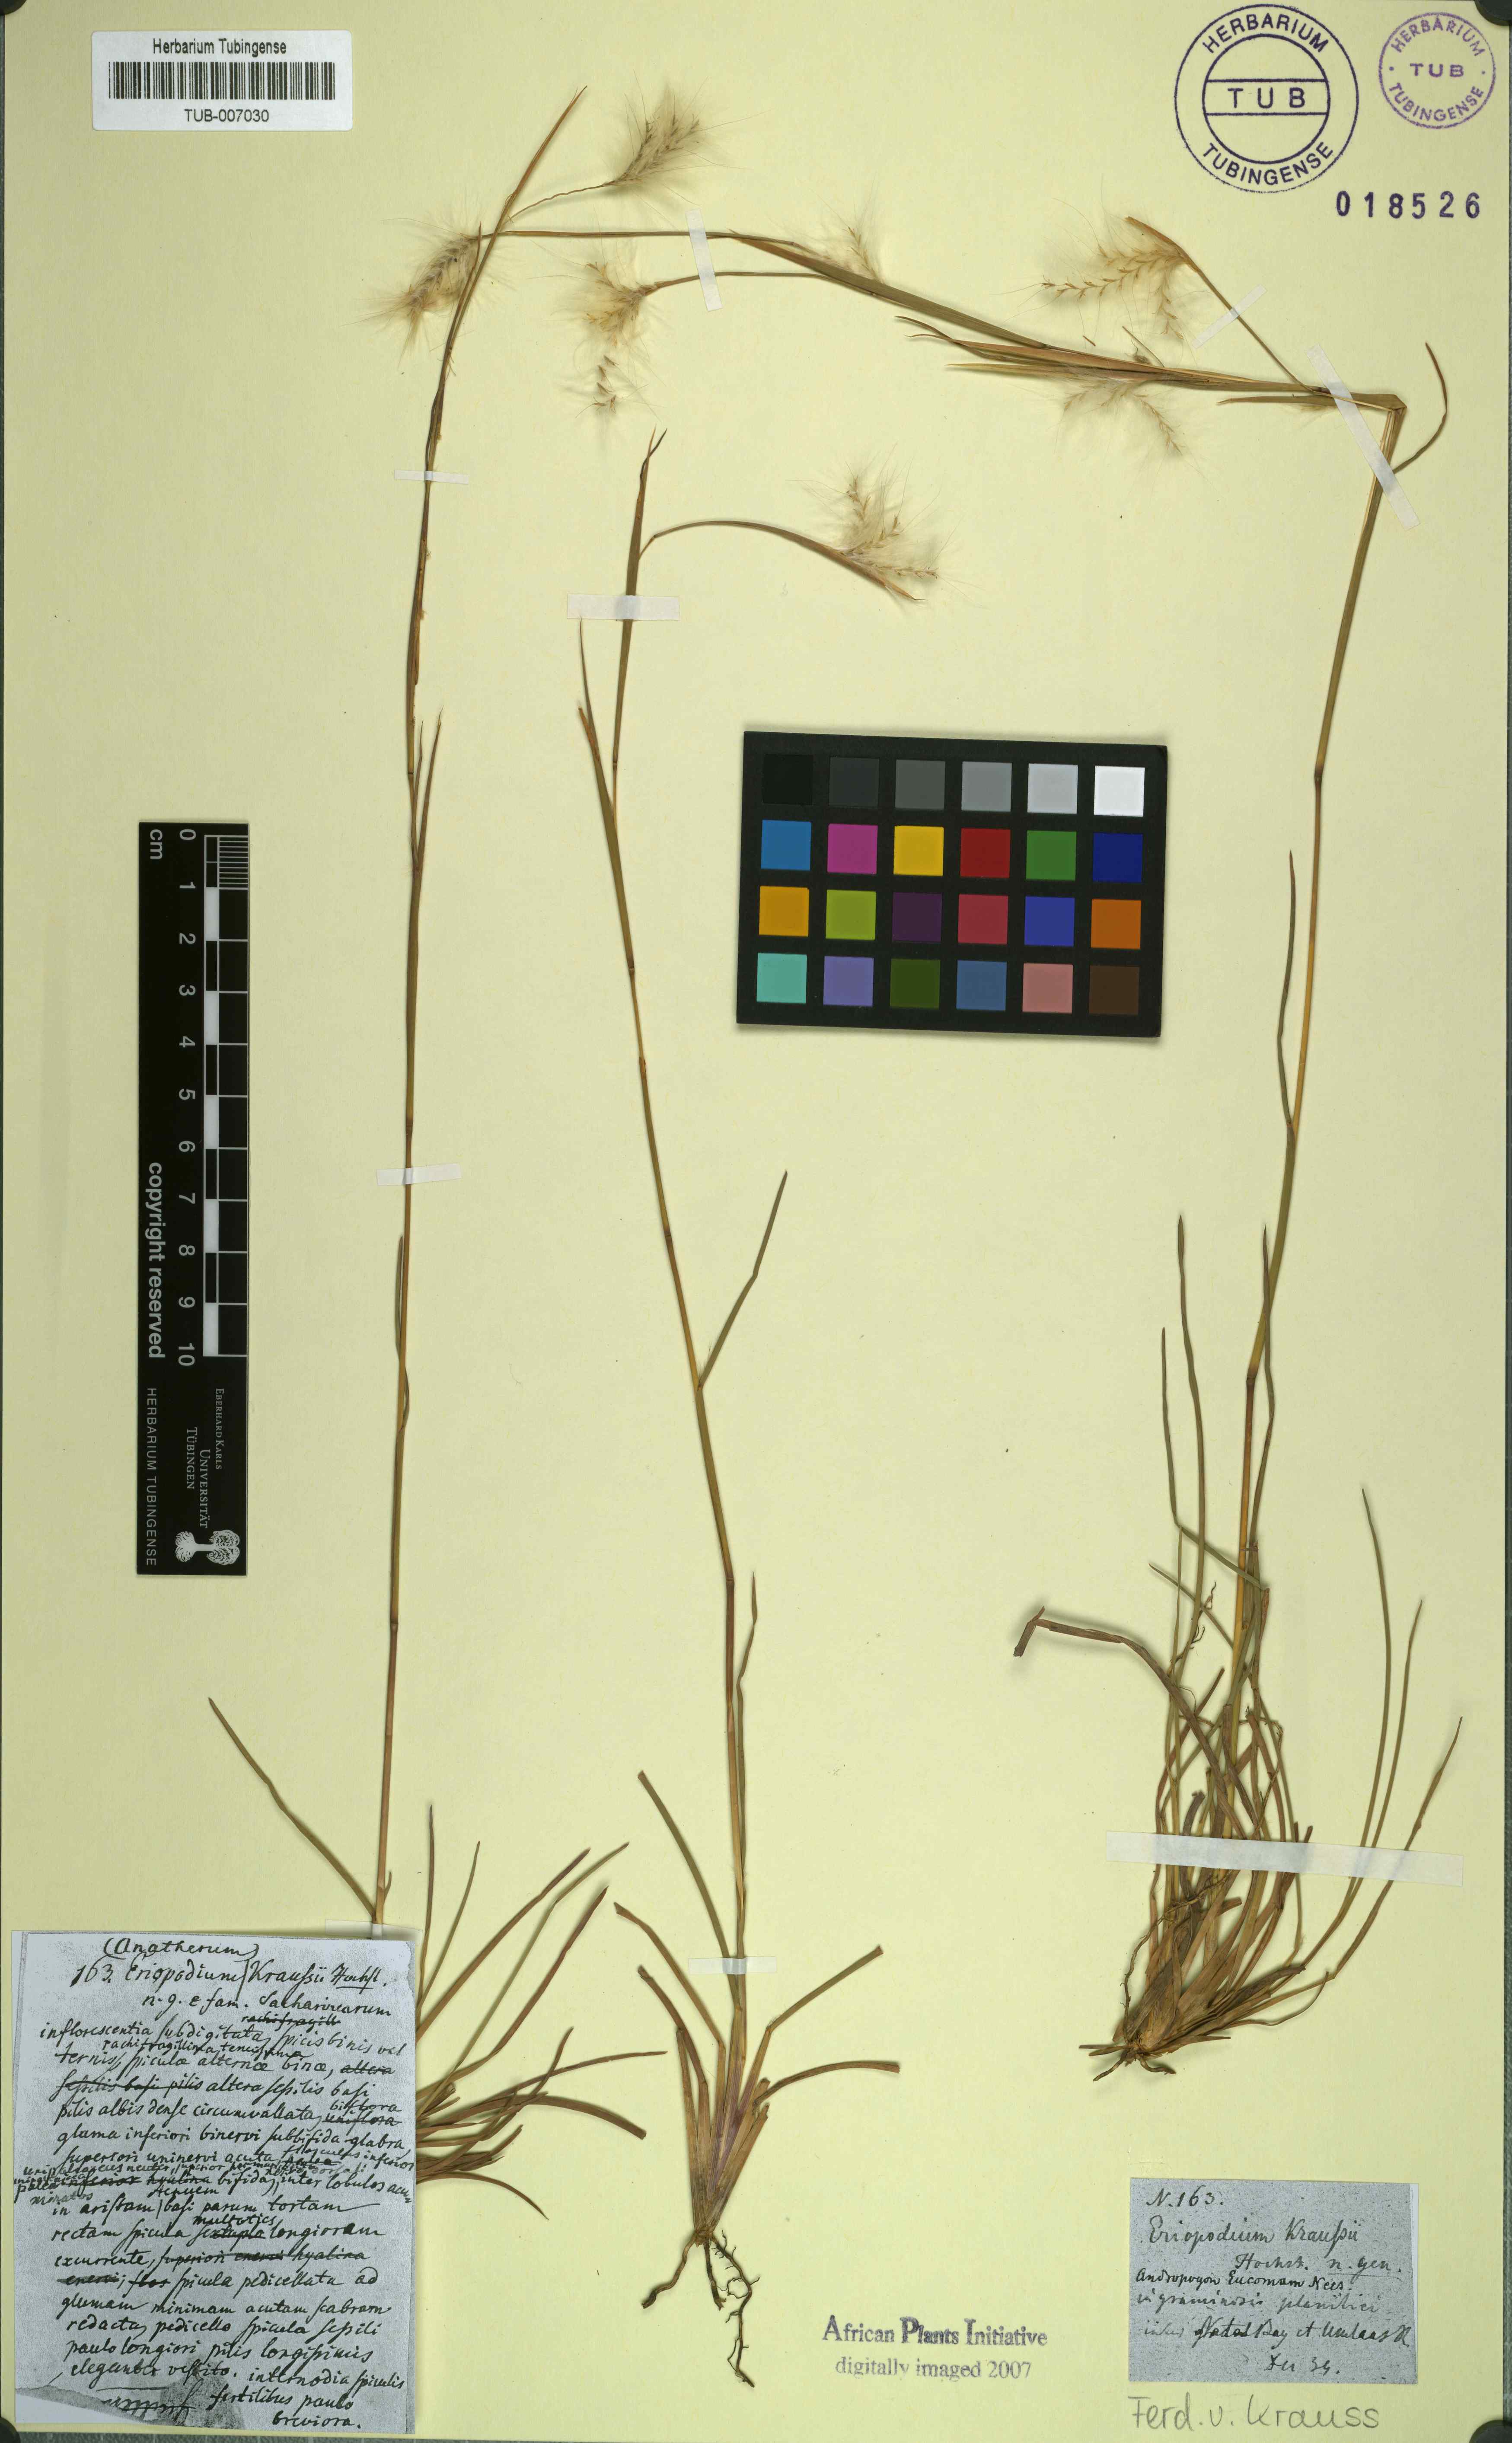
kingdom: Plantae
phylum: Tracheophyta
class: Liliopsida
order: Poales
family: Poaceae
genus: Andropogon
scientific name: Andropogon eucomus
